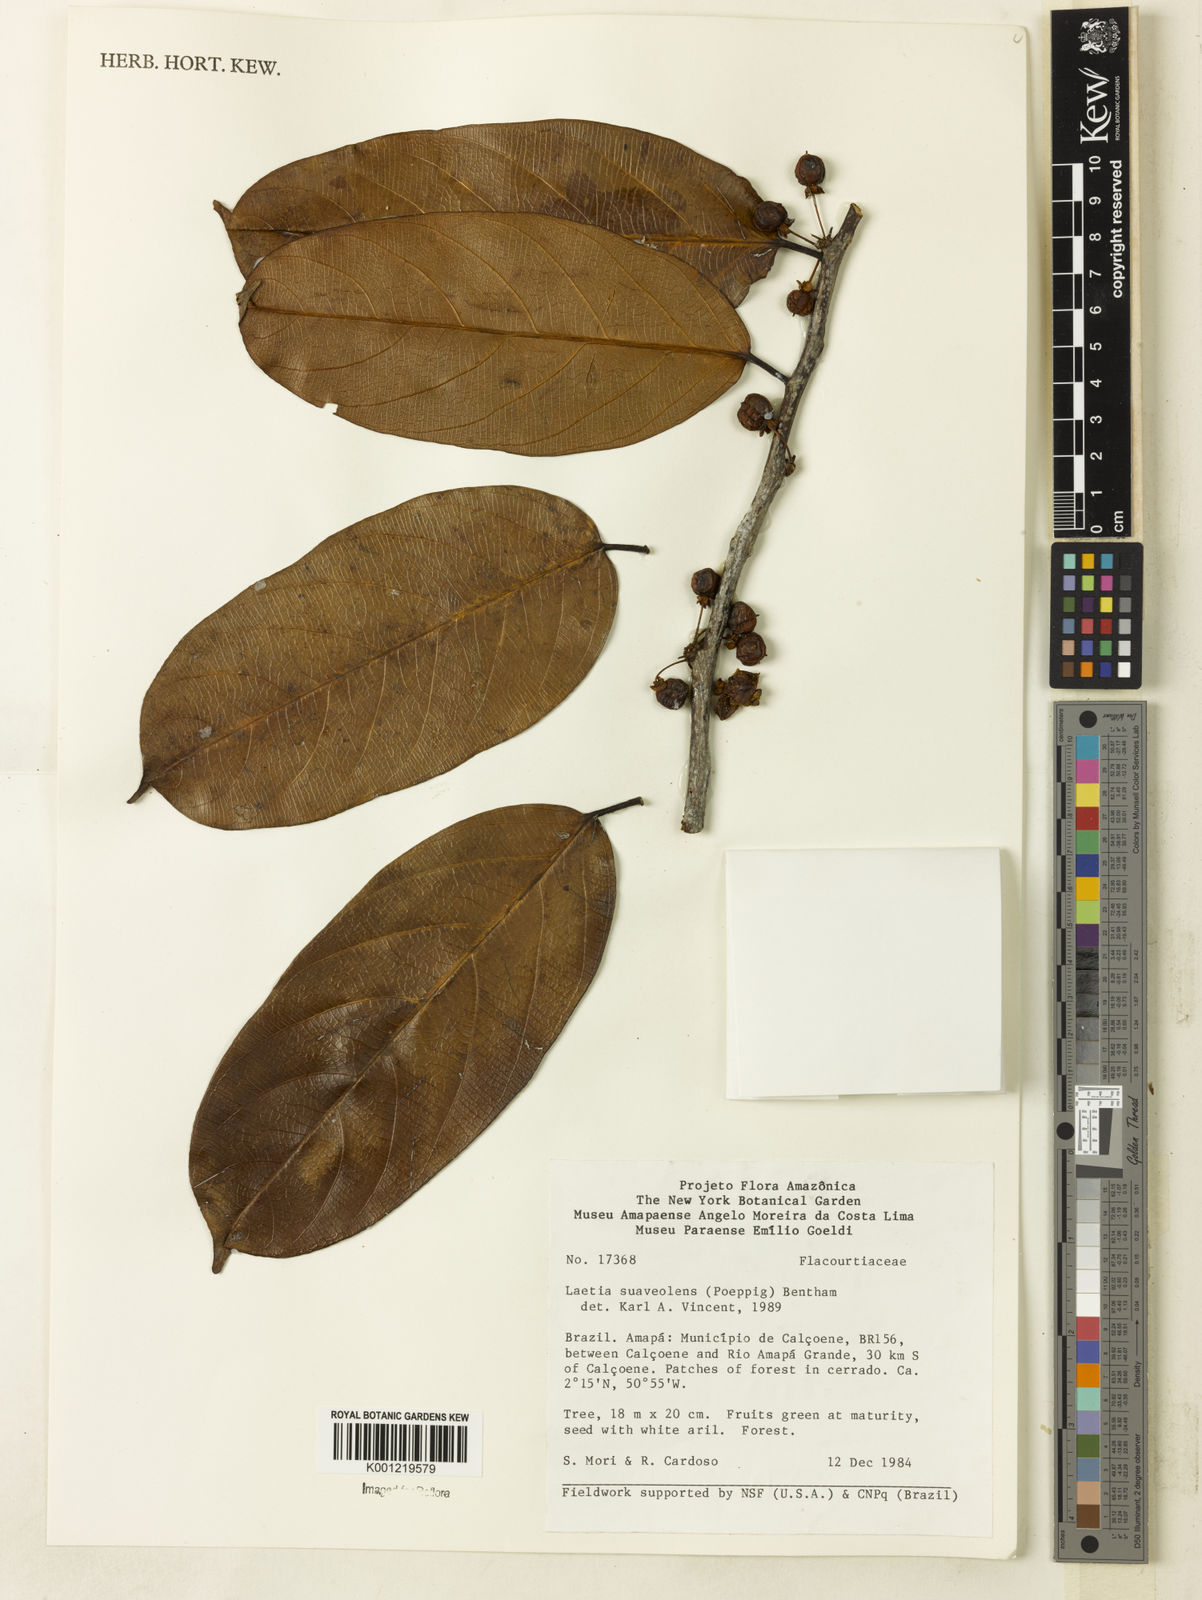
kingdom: Plantae
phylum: Tracheophyta
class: Magnoliopsida
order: Malpighiales
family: Salicaceae
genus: Casearia
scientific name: Casearia suaveolens
